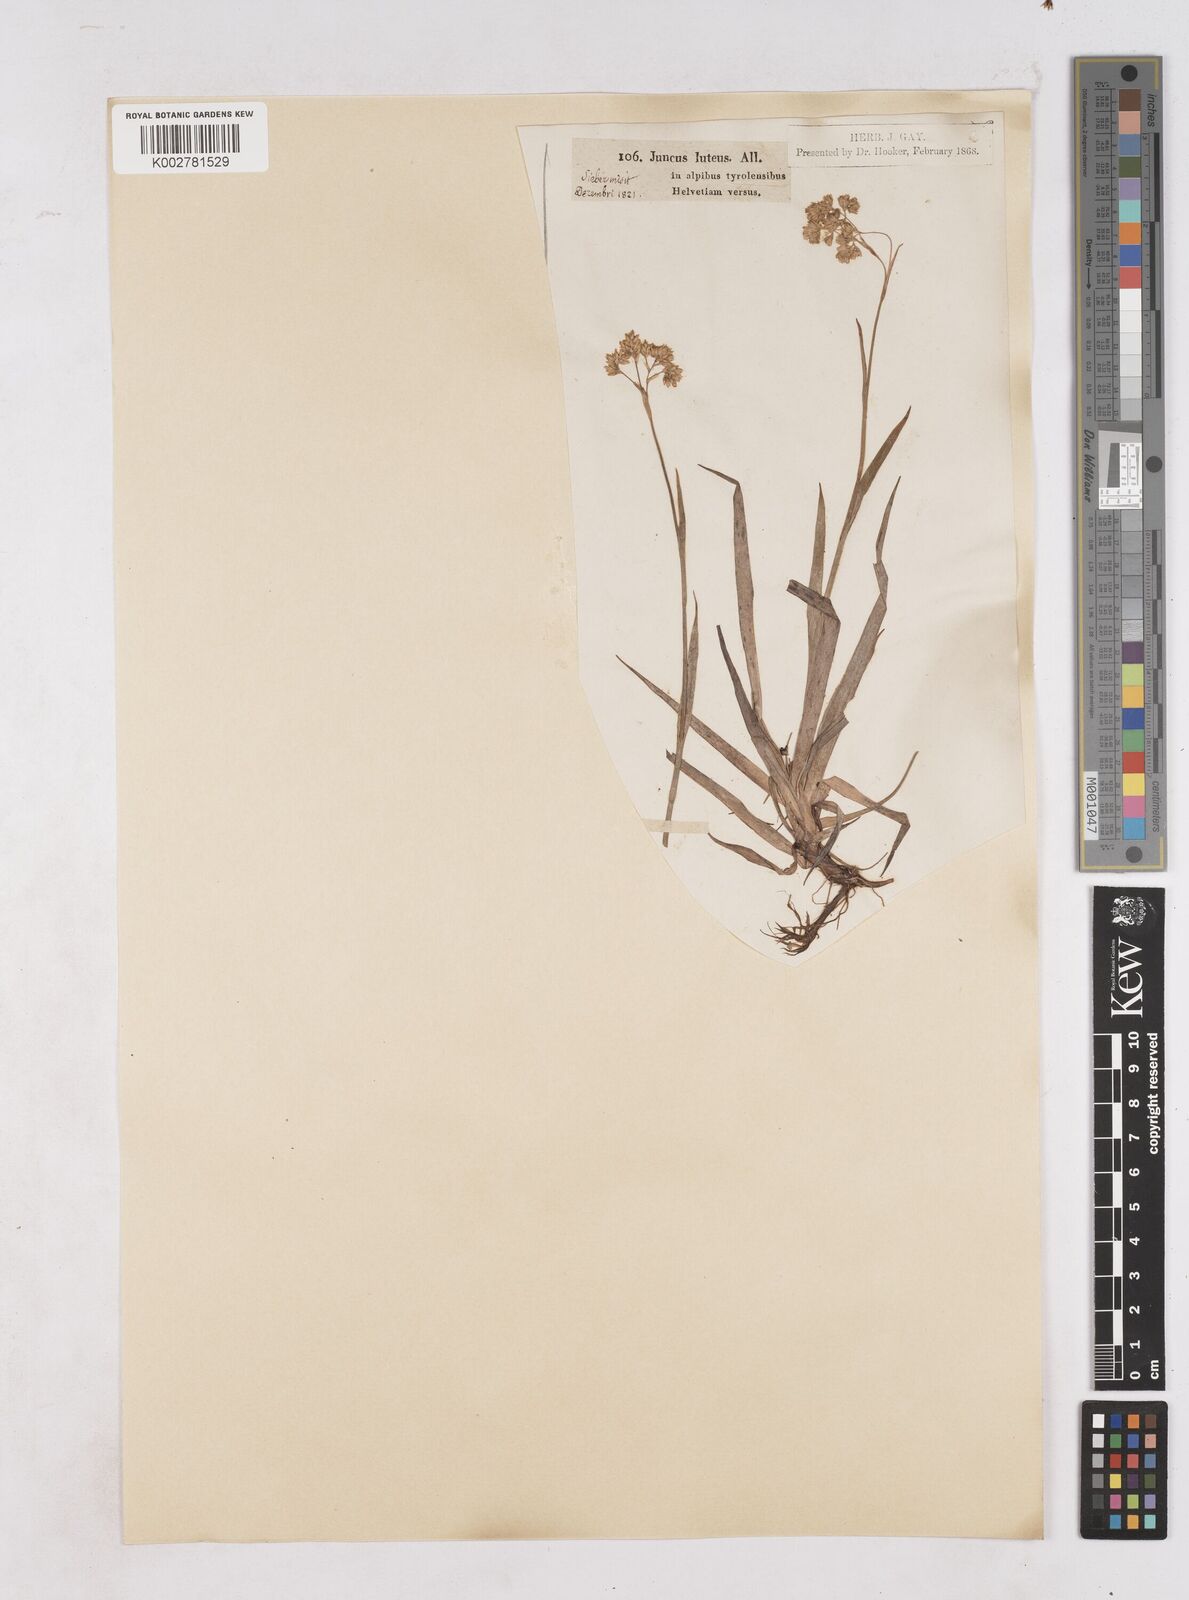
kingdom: Plantae
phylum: Tracheophyta
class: Liliopsida
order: Poales
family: Juncaceae
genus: Luzula
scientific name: Luzula lutea
